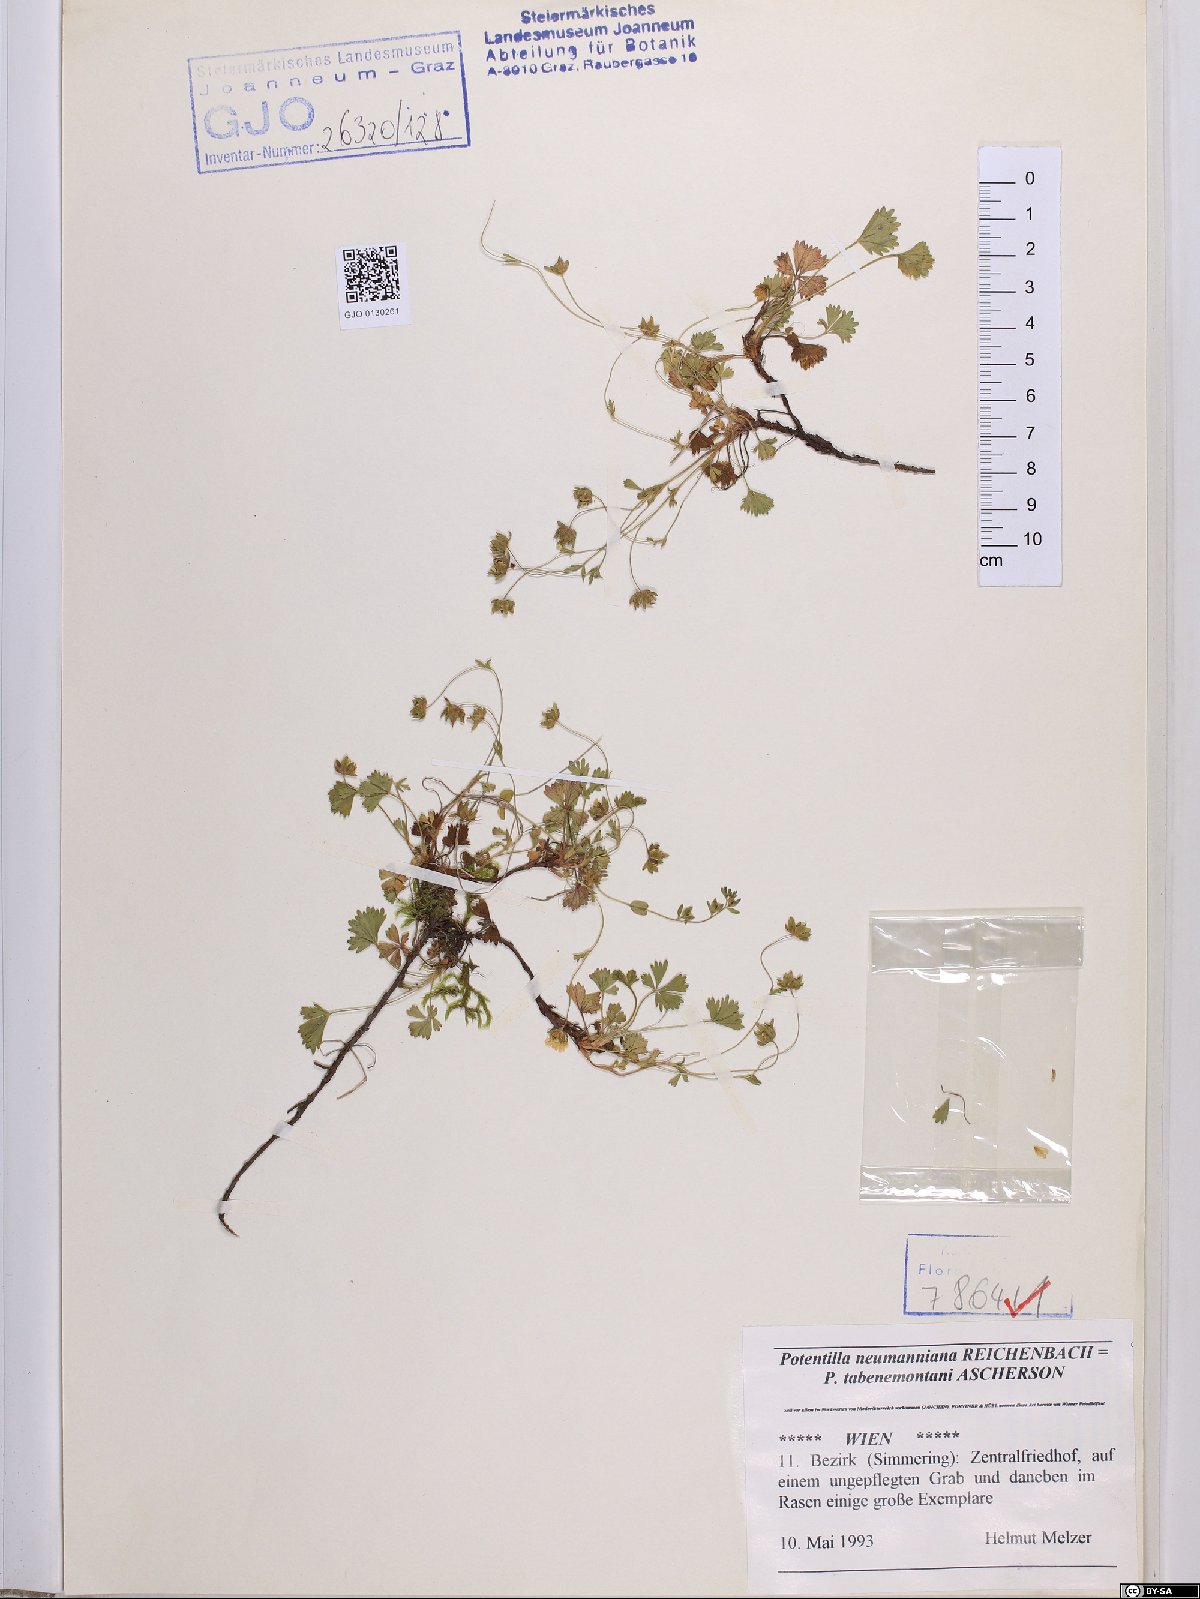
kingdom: Plantae
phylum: Tracheophyta
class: Magnoliopsida
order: Rosales
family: Rosaceae
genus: Potentilla
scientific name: Potentilla verna
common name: Spring cinquefoil
